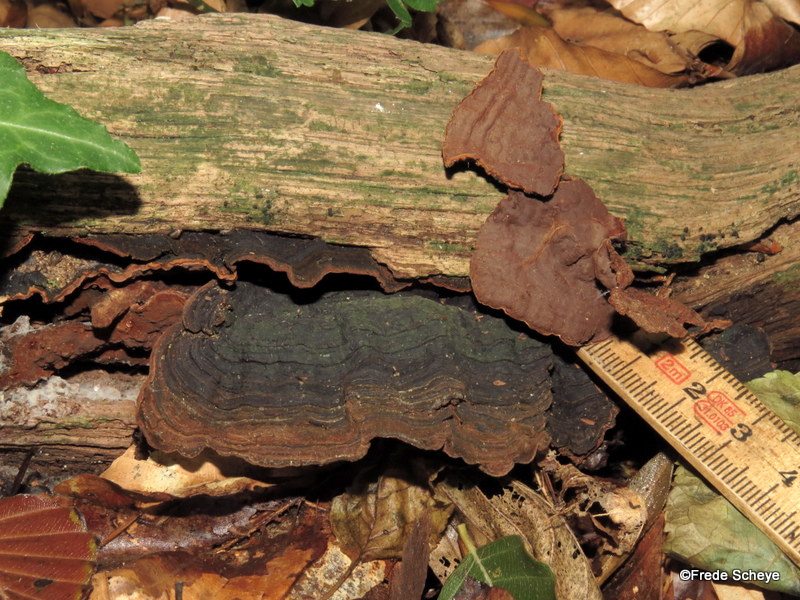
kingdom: Fungi
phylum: Basidiomycota
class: Agaricomycetes
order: Hymenochaetales
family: Hymenochaetaceae
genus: Hymenochaete
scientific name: Hymenochaete rubiginosa
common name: stiv ruslædersvamp
